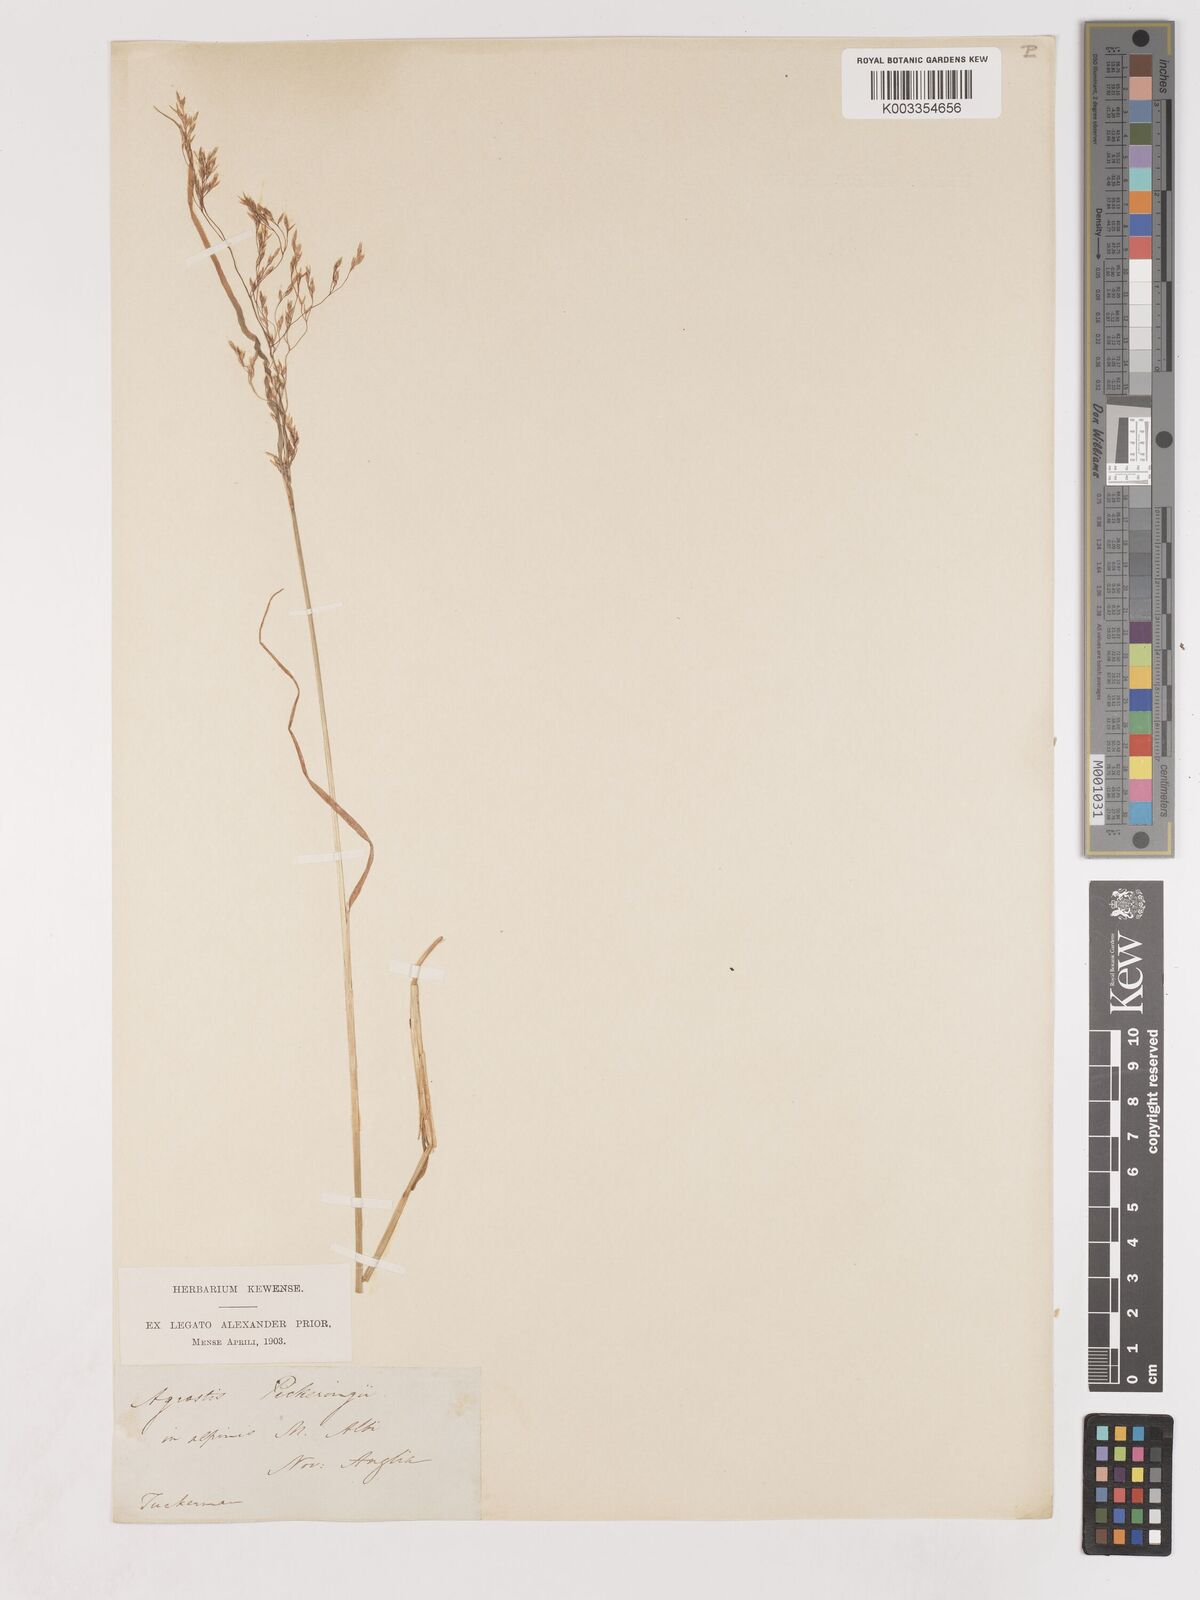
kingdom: Plantae
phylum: Tracheophyta
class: Liliopsida
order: Poales
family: Poaceae
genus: Calamagrostis
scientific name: Calamagrostis pickeringii
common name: Pickering's reed bentgrass
